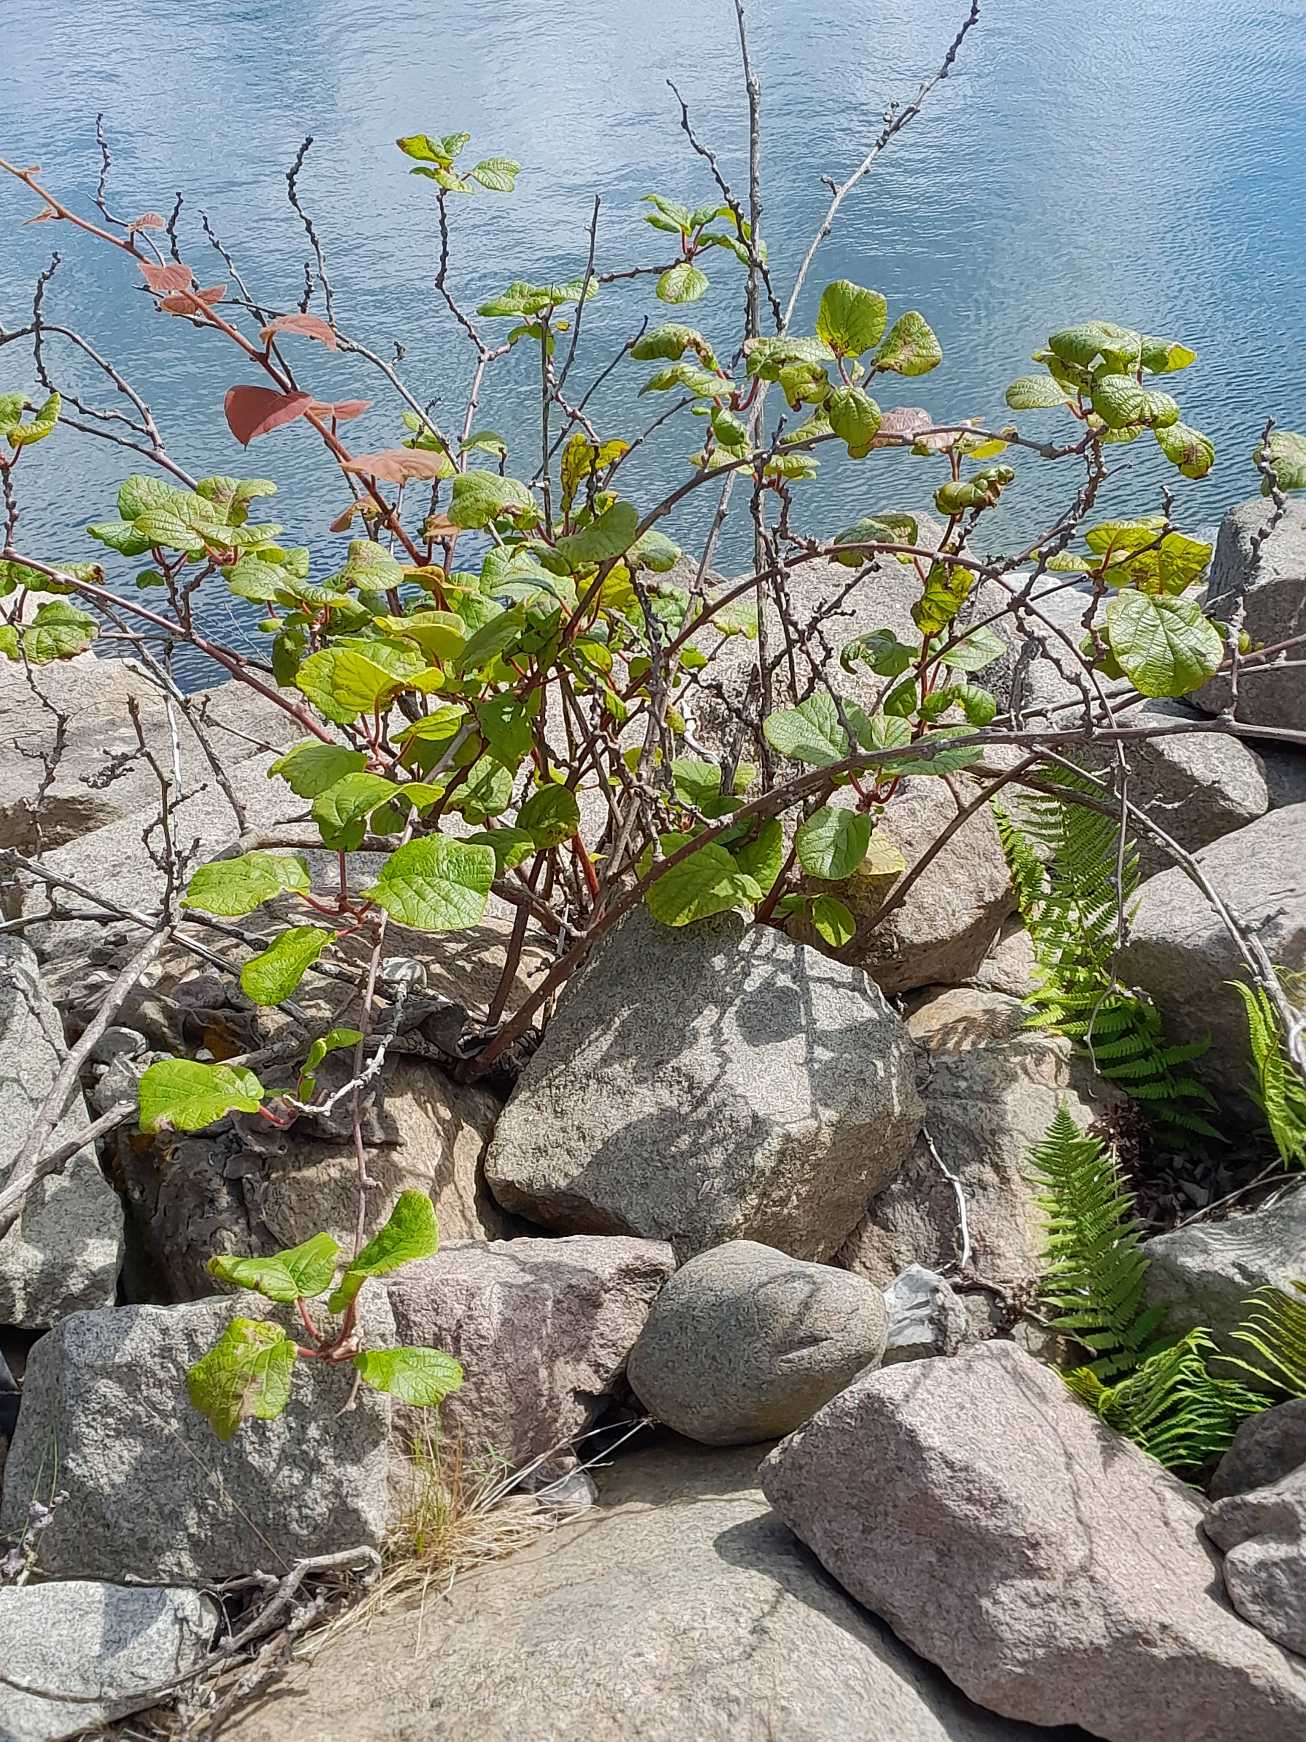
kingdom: Plantae
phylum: Tracheophyta
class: Magnoliopsida
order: Ericales
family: Actinidiaceae
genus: Actinidia
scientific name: Actinidia chinensis
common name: Kiwi
